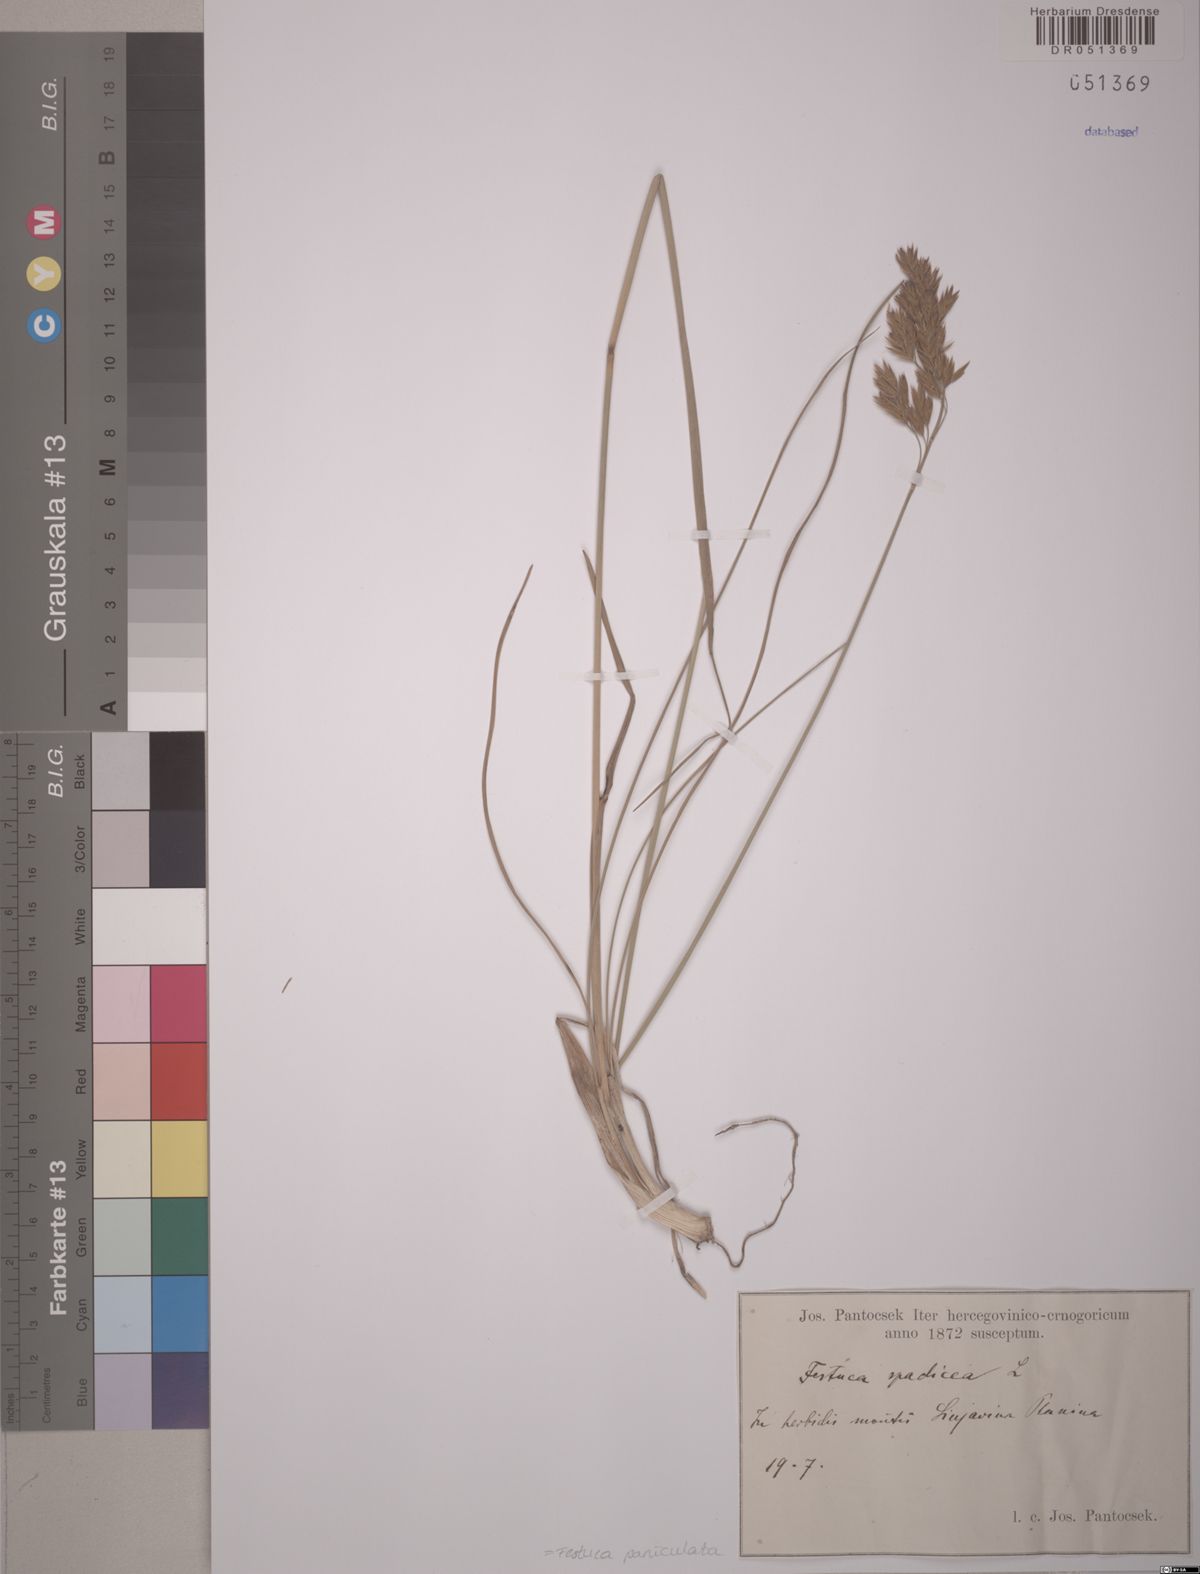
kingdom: Plantae
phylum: Tracheophyta
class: Liliopsida
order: Poales
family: Poaceae
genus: Patzkea
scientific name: Patzkea paniculata
